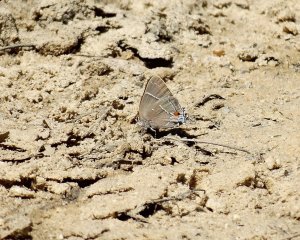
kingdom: Animalia
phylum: Arthropoda
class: Insecta
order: Lepidoptera
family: Lycaenidae
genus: Parrhasius
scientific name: Parrhasius m-album
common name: White-m Hairstreak
